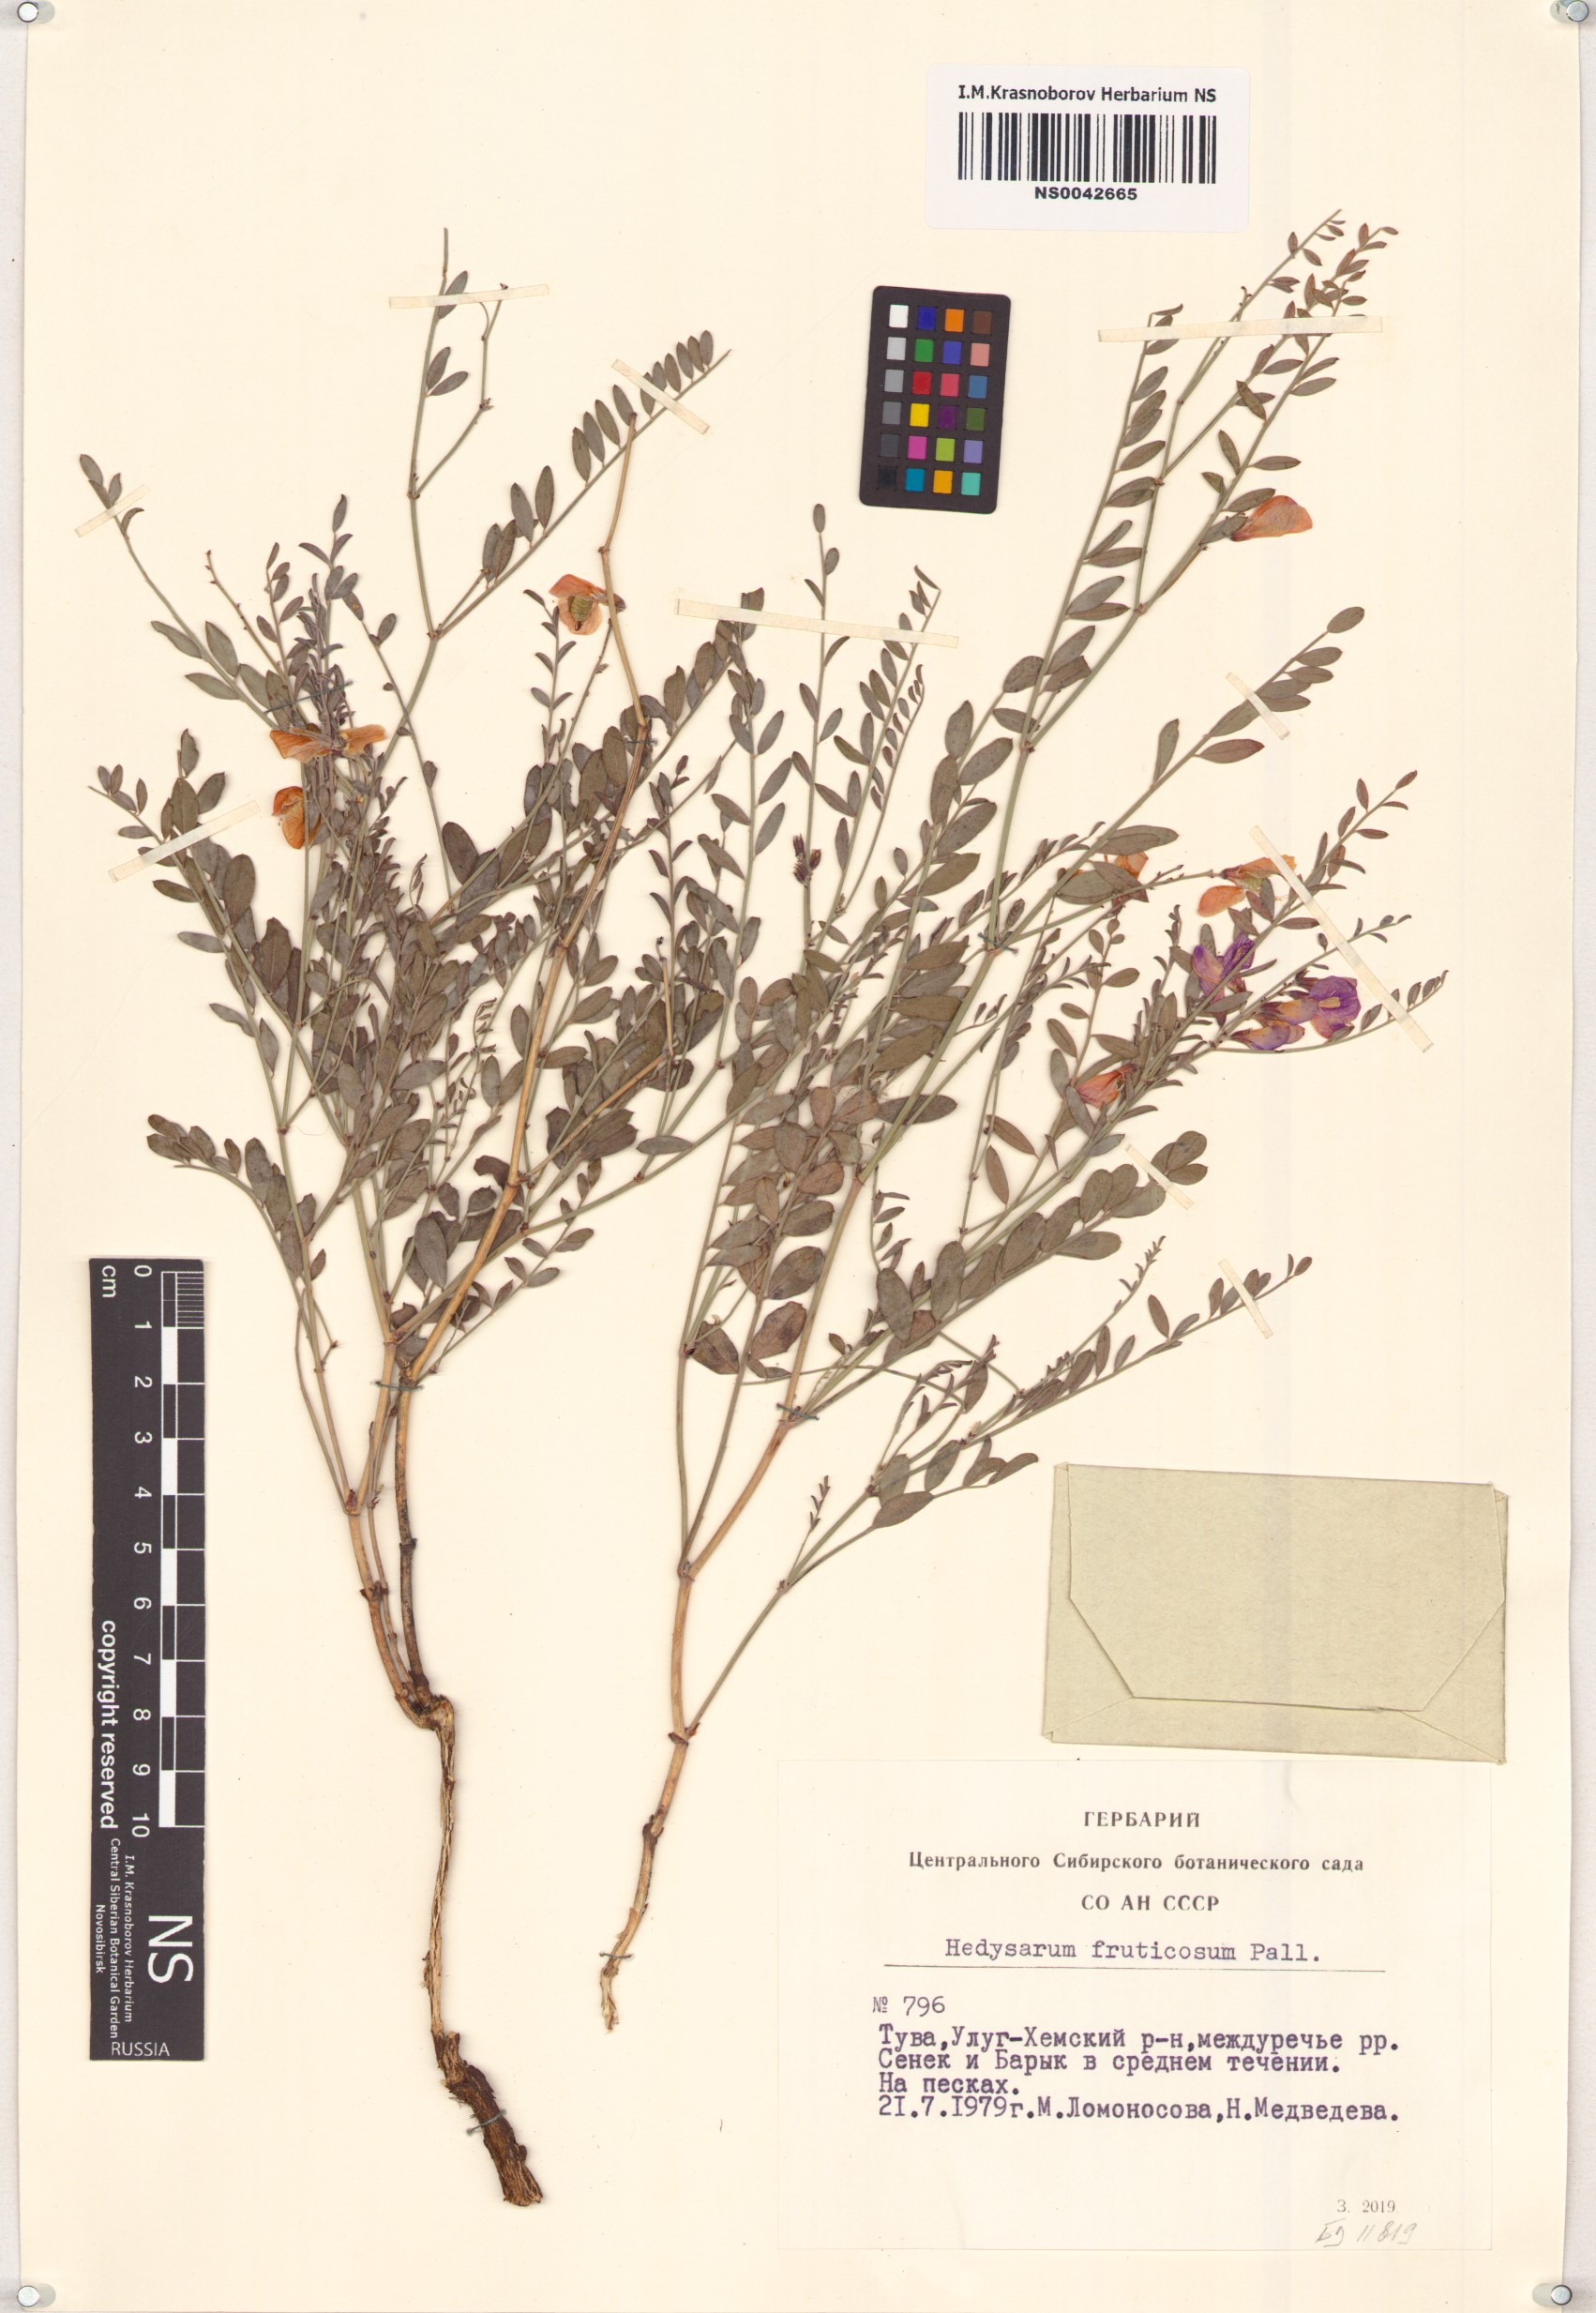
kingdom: Plantae
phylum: Tracheophyta
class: Magnoliopsida
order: Fabales
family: Fabaceae
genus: Corethrodendron
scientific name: Corethrodendron fruticosum
